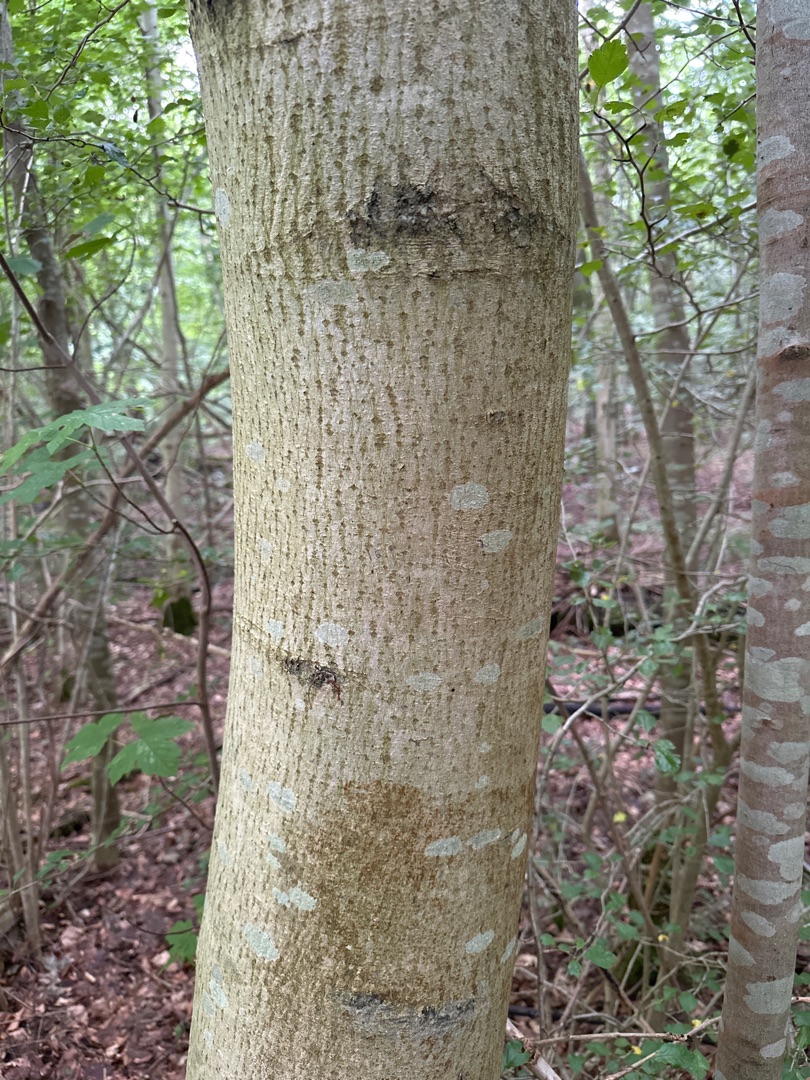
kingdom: Plantae
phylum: Tracheophyta
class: Magnoliopsida
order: Lamiales
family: Oleaceae
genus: Fraxinus
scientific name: Fraxinus excelsior
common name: Ask
